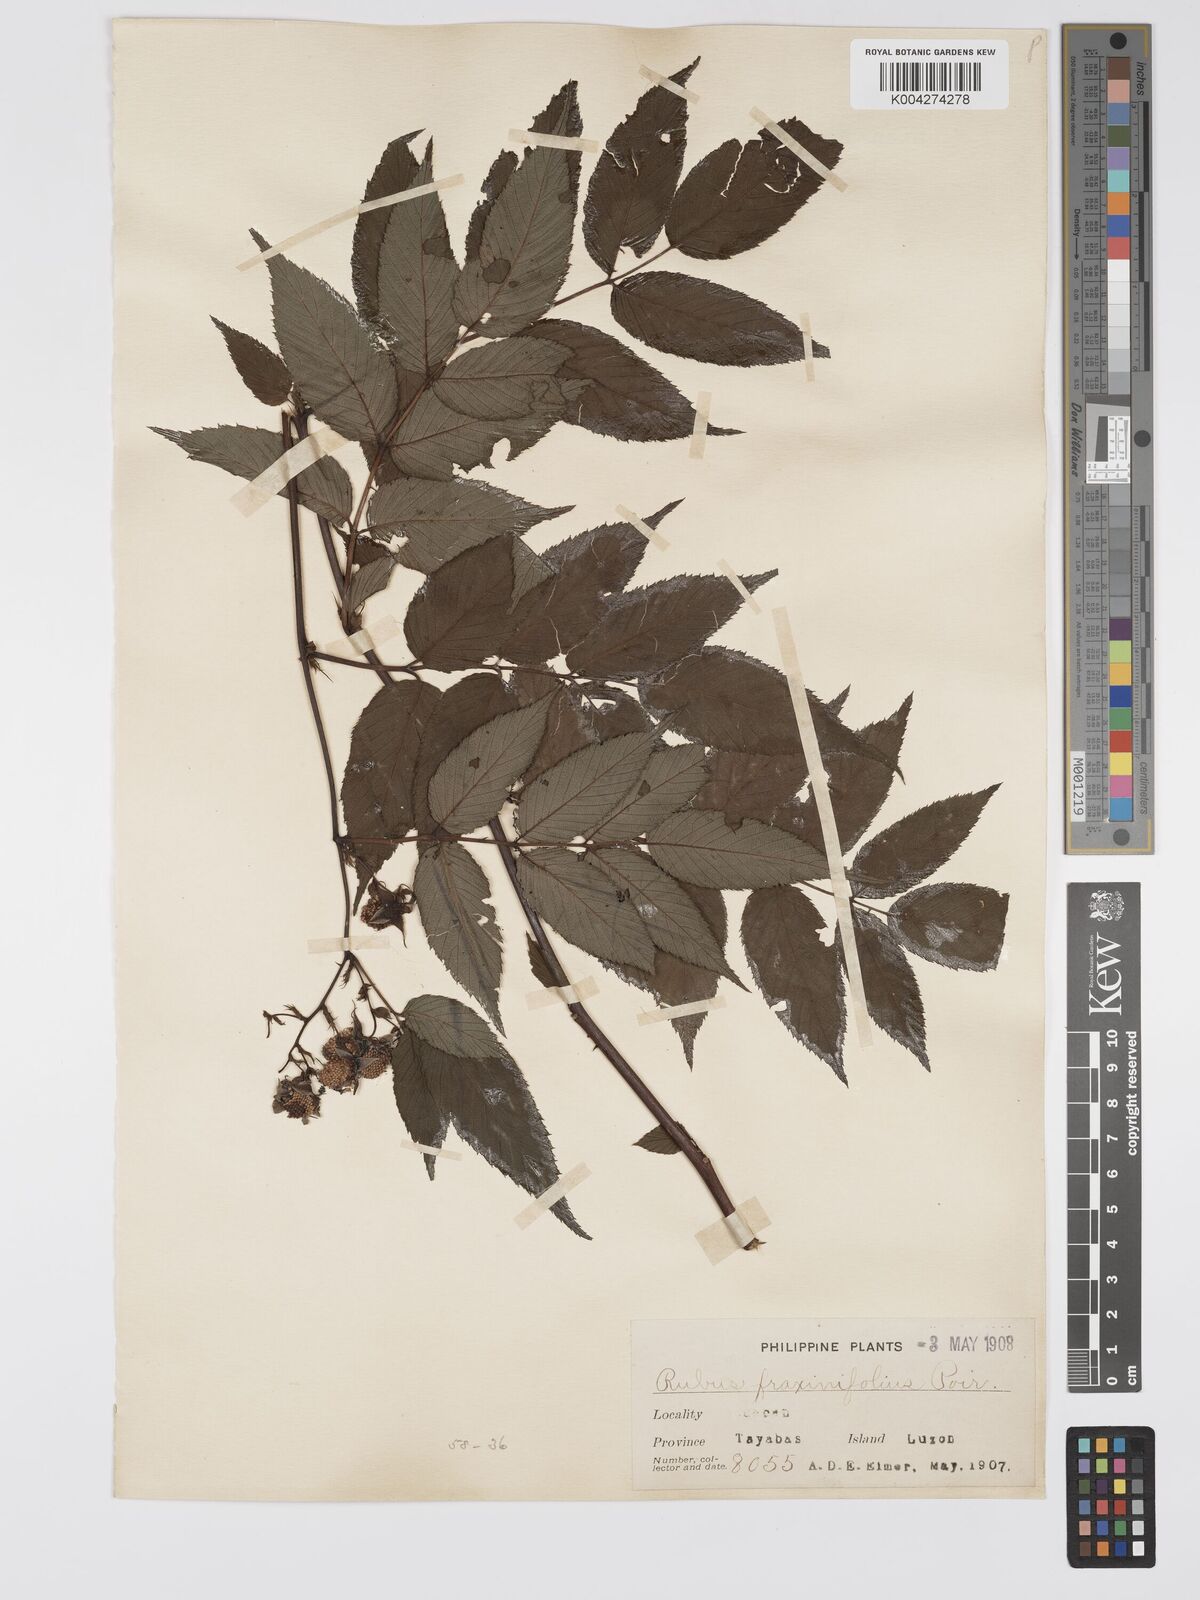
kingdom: Plantae
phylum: Tracheophyta
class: Magnoliopsida
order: Rosales
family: Rosaceae
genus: Rubus
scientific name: Rubus fraxinifolius
